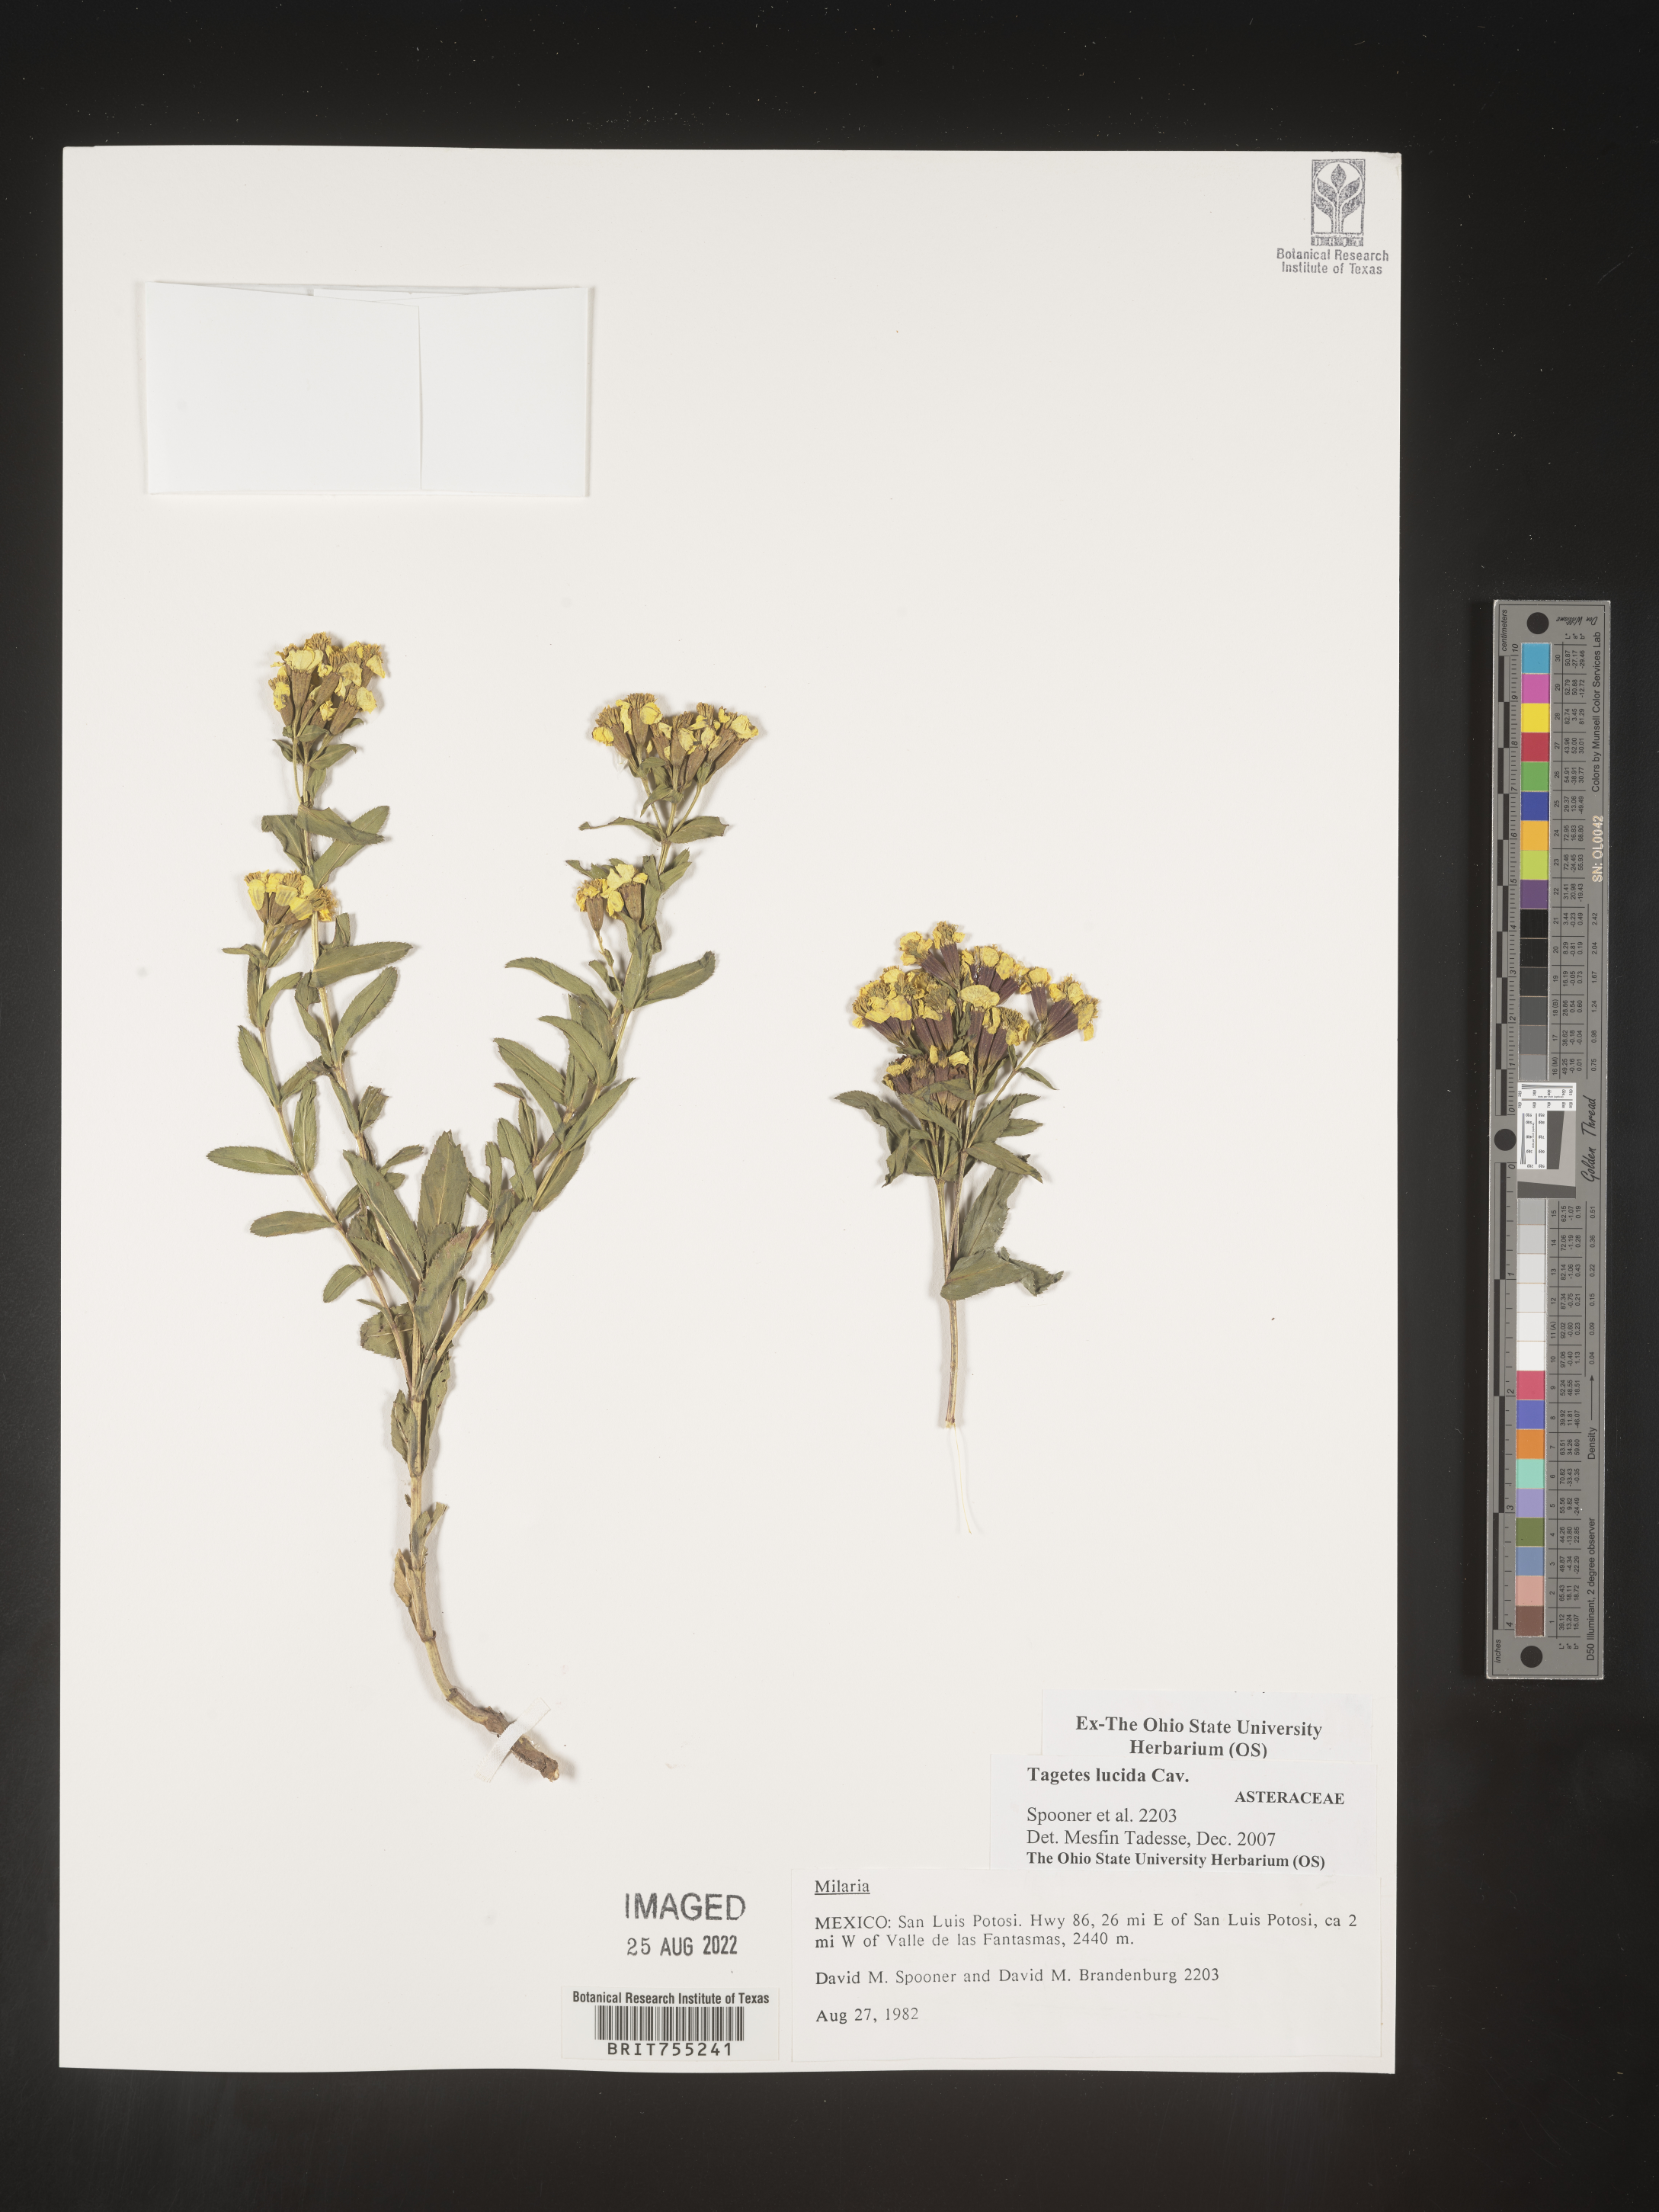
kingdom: Plantae
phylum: Tracheophyta
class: Magnoliopsida
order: Asterales
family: Asteraceae
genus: Tagetes
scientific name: Tagetes lucida
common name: Sweetscented marigold
